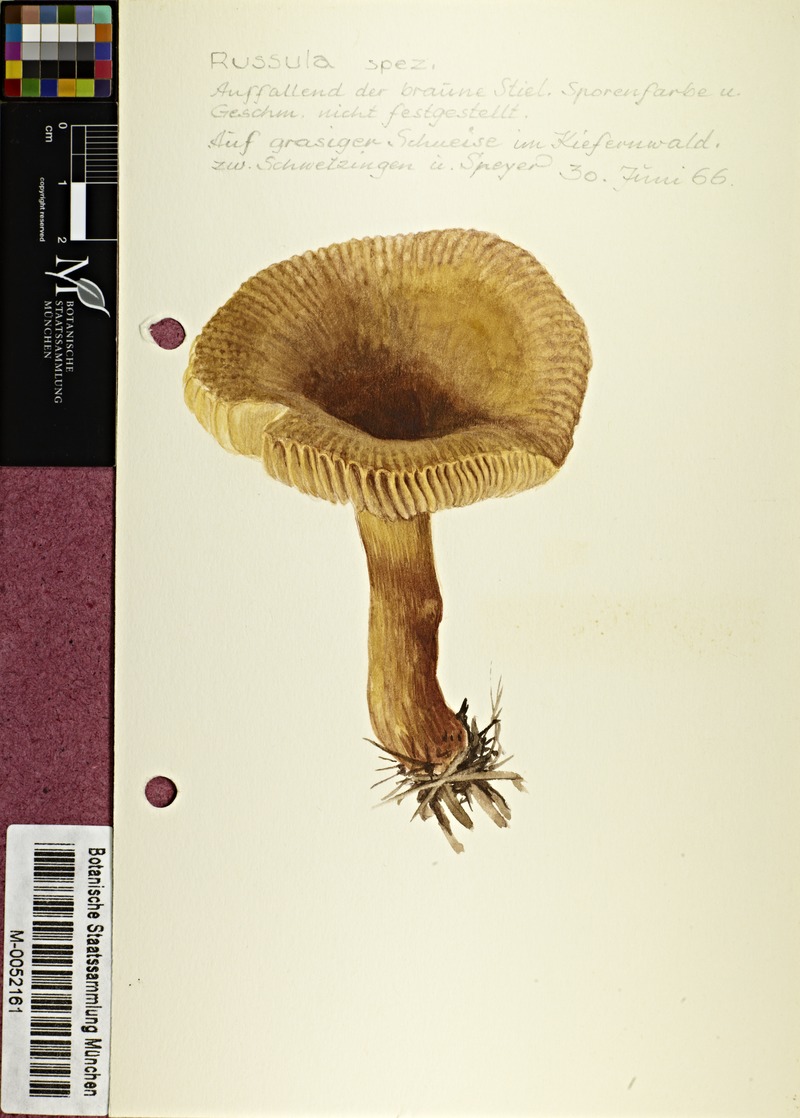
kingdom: Fungi
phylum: Basidiomycota
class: Agaricomycetes
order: Russulales
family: Russulaceae
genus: Russula
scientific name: Russula
